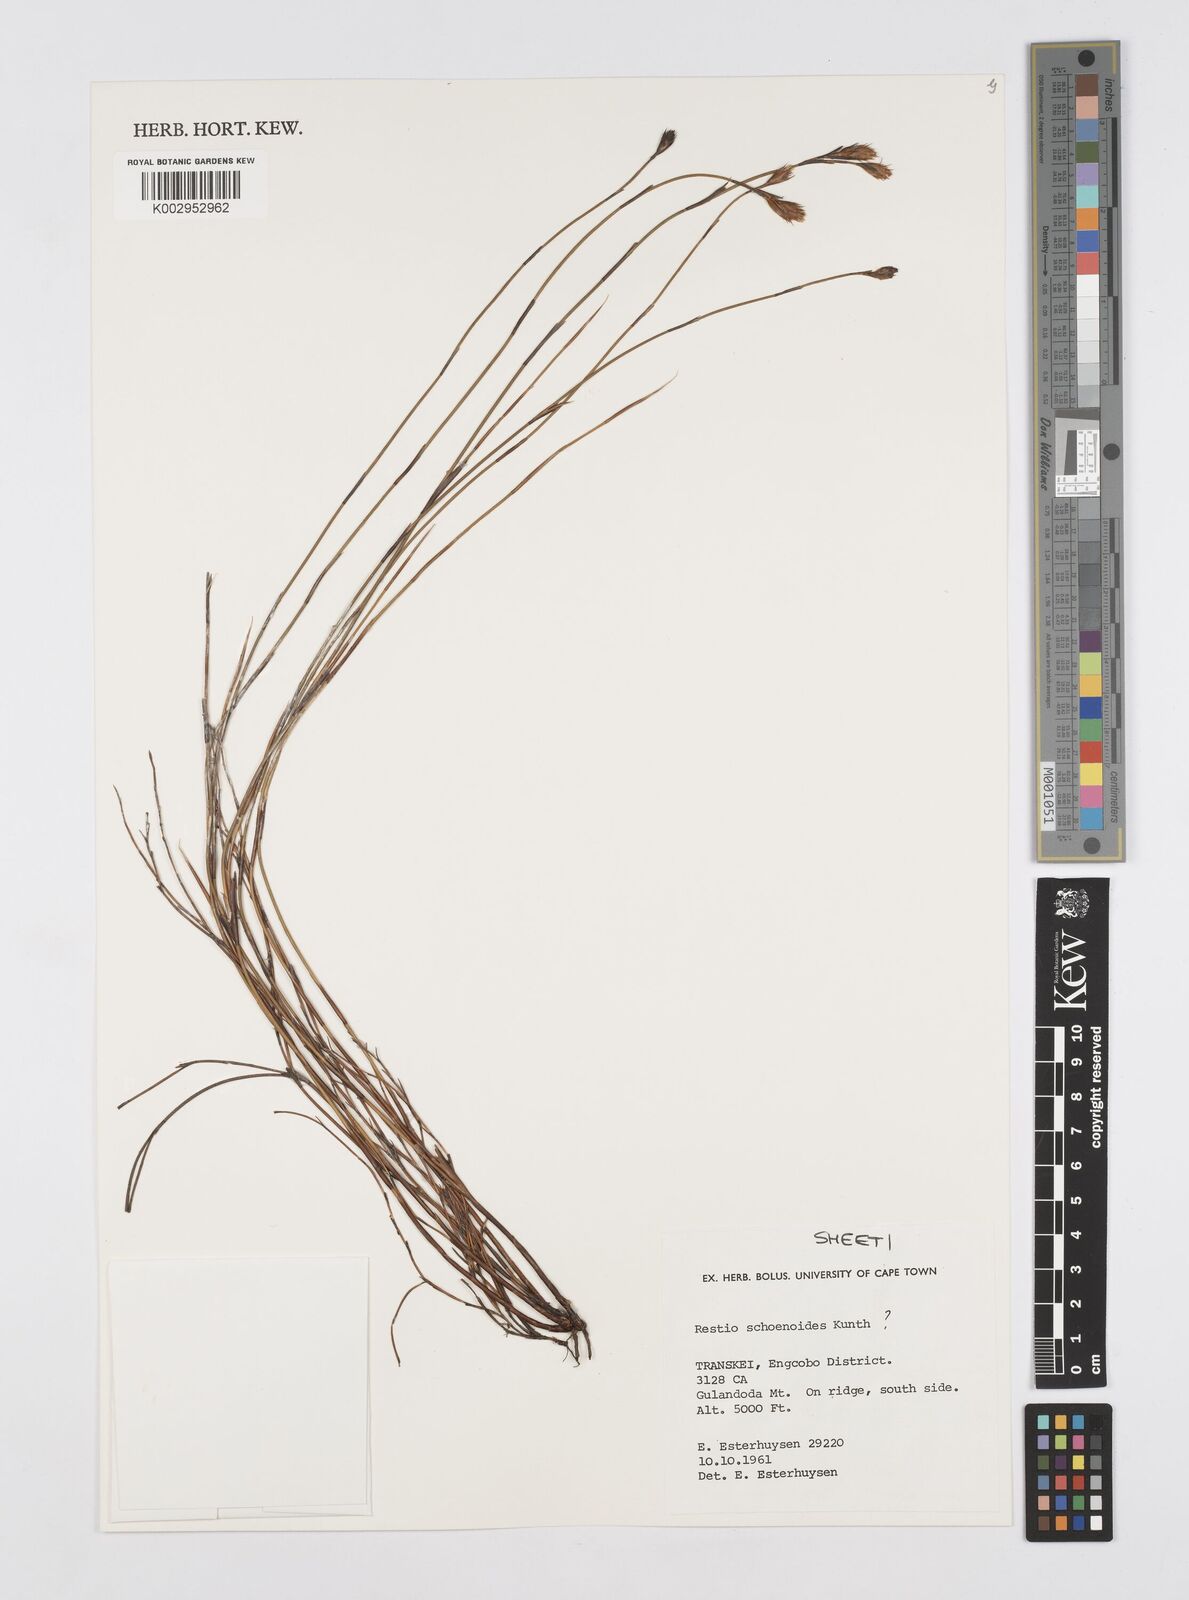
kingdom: Plantae
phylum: Tracheophyta
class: Liliopsida
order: Poales
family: Restionaceae
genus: Restio
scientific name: Restio schoenoides
